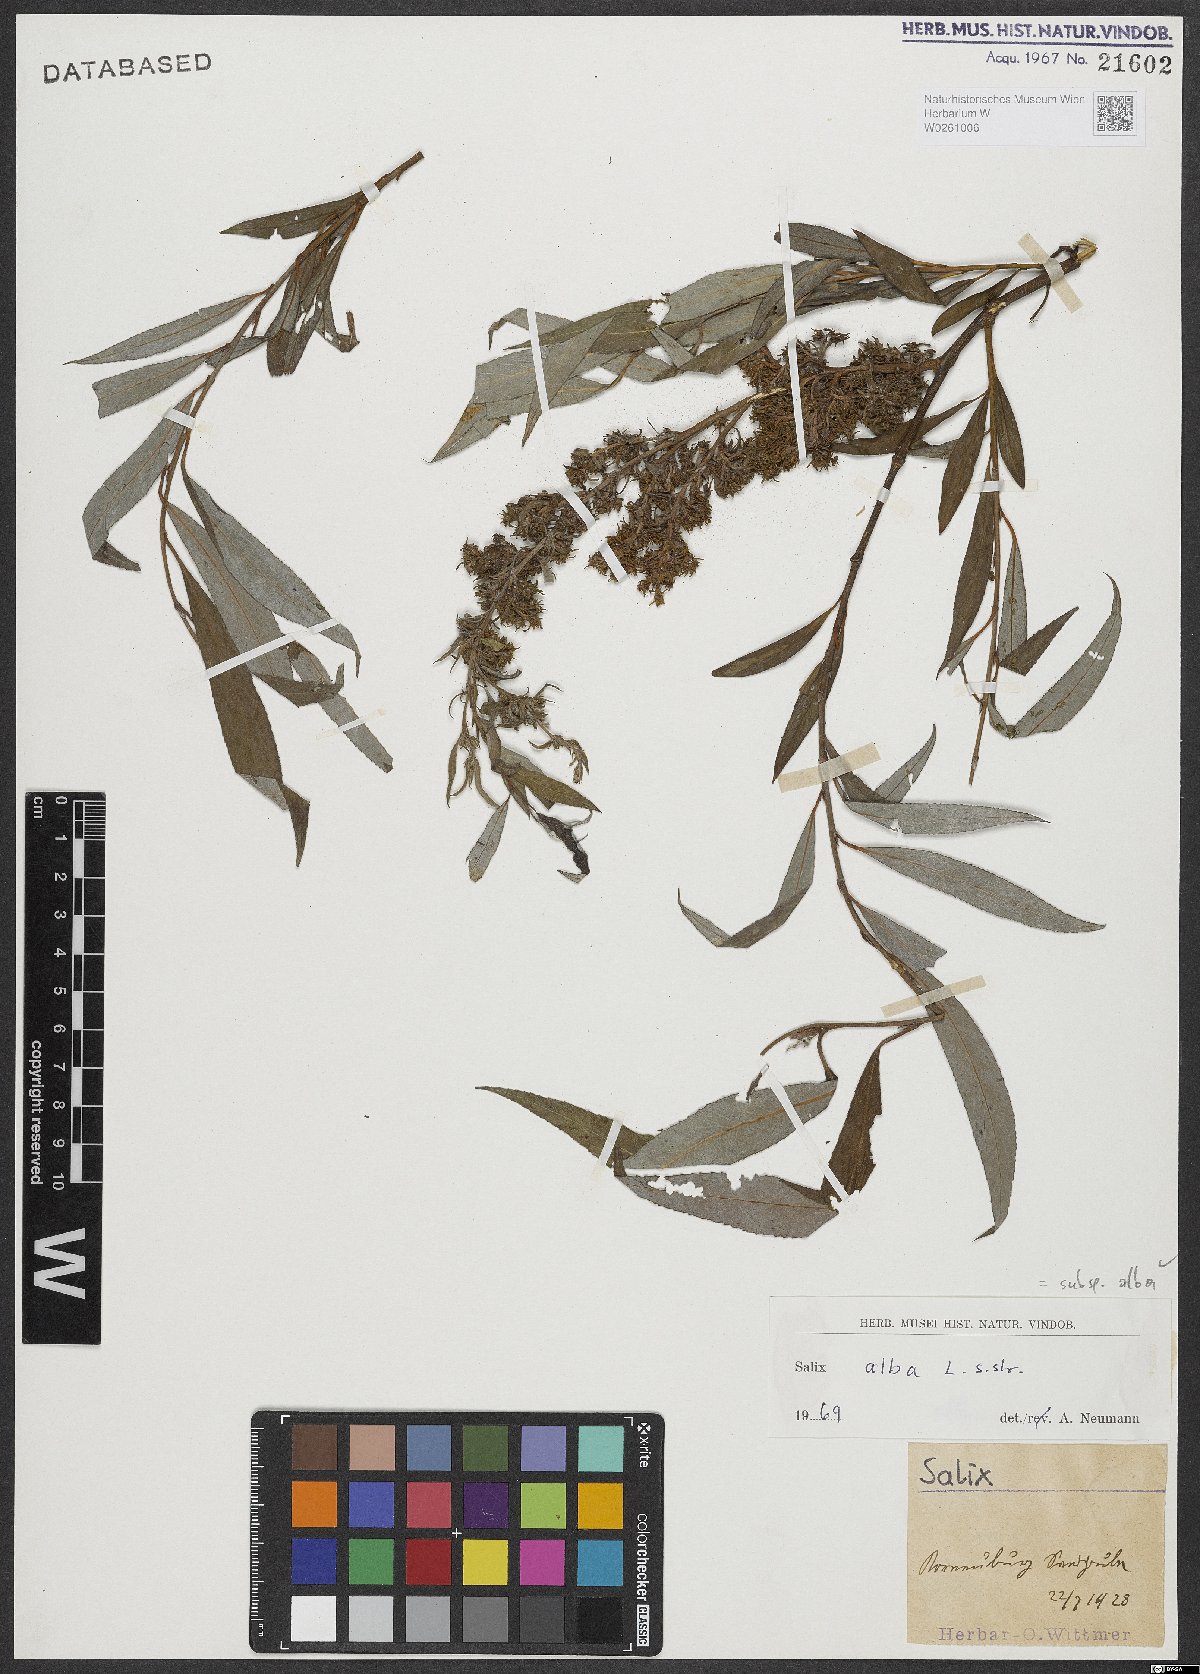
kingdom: Plantae
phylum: Tracheophyta
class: Magnoliopsida
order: Malpighiales
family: Salicaceae
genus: Salix
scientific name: Salix alba
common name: White willow
